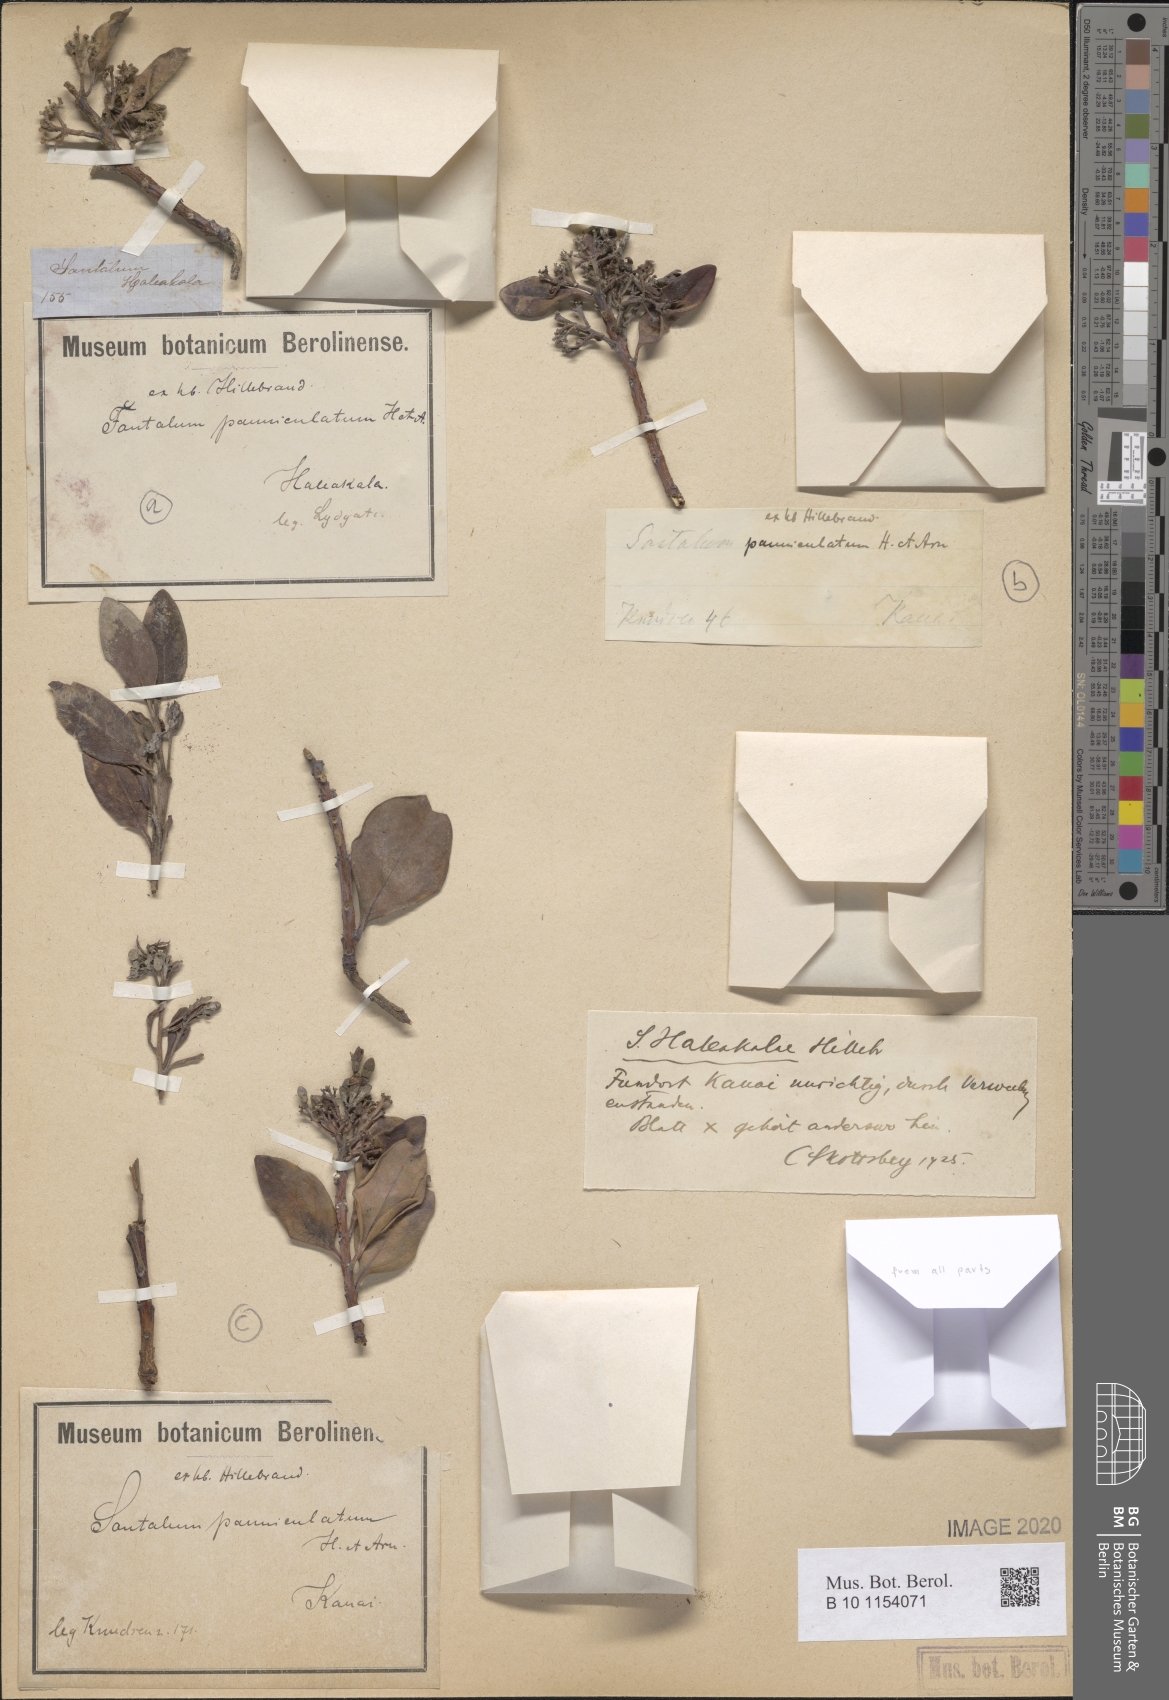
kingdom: Plantae
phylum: Tracheophyta
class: Magnoliopsida
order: Santalales
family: Santalaceae
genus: Santalum
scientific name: Santalum haleakalae
